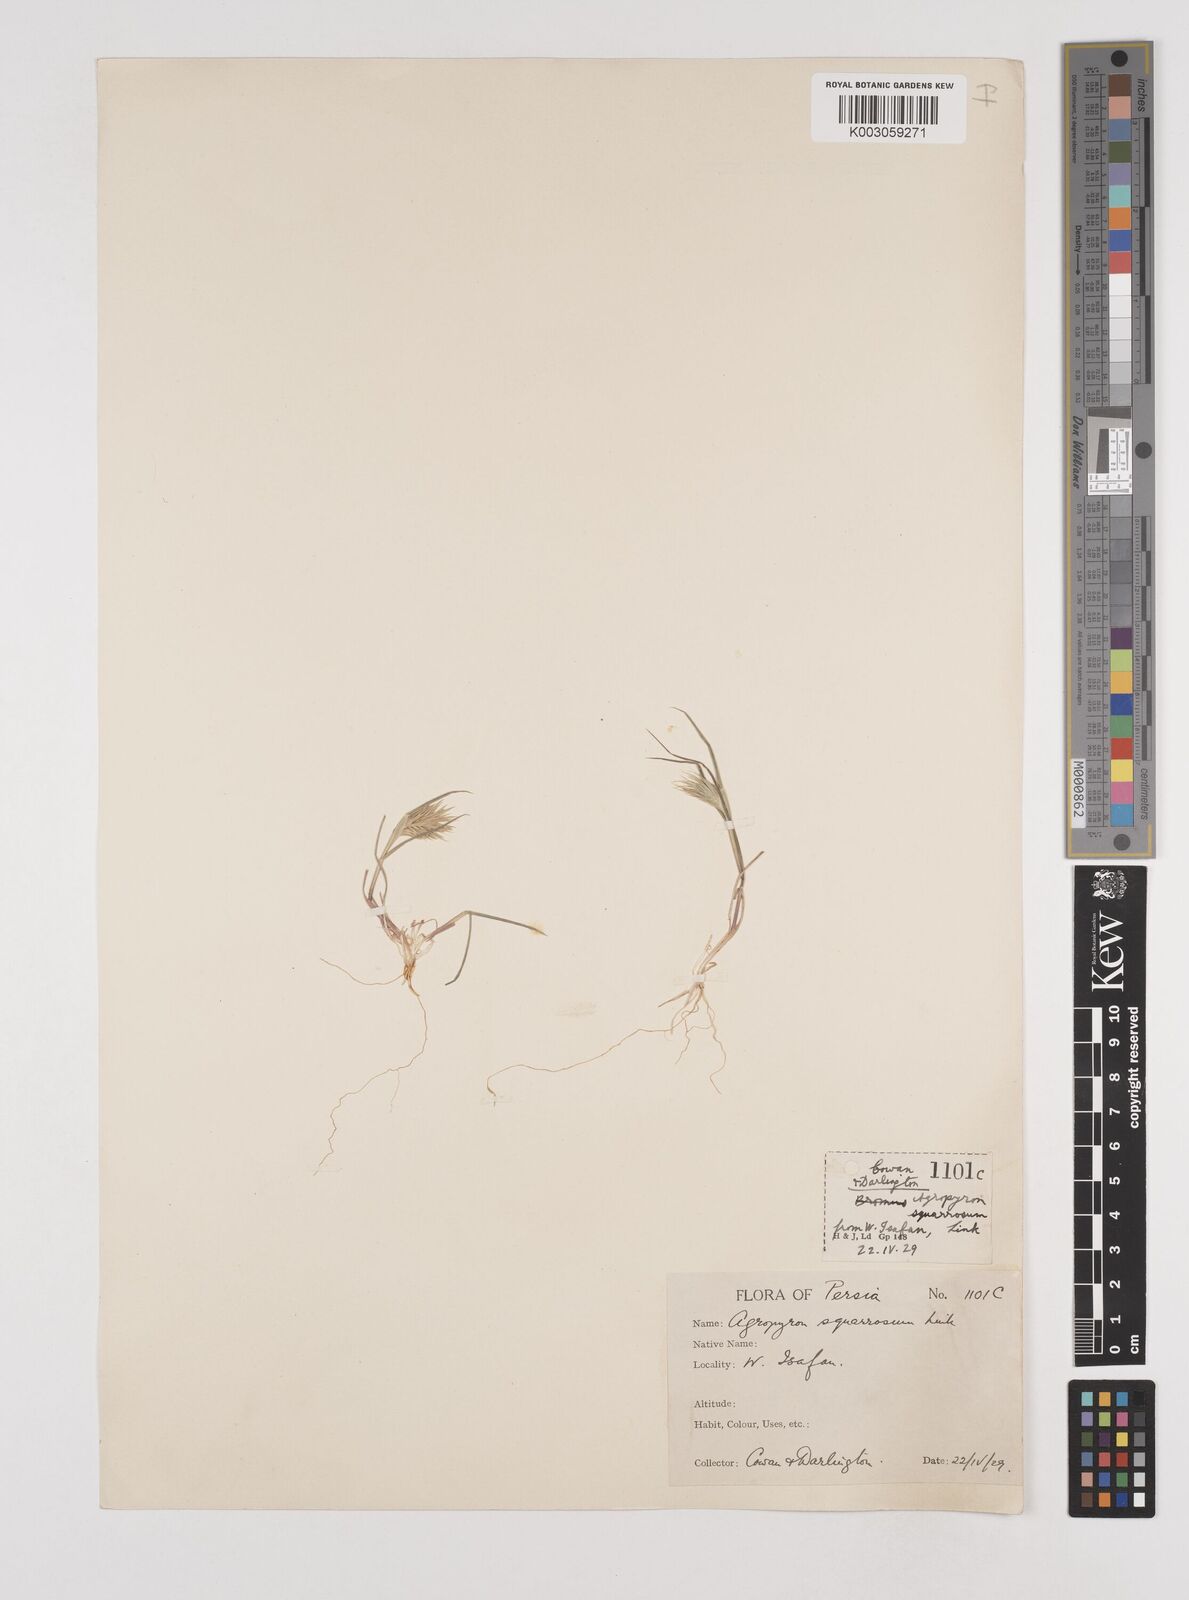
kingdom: Plantae
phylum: Tracheophyta
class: Liliopsida
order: Poales
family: Poaceae
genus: Eremopyrum
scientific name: Eremopyrum bonaepartis
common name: Tapertip false wheatgrass
